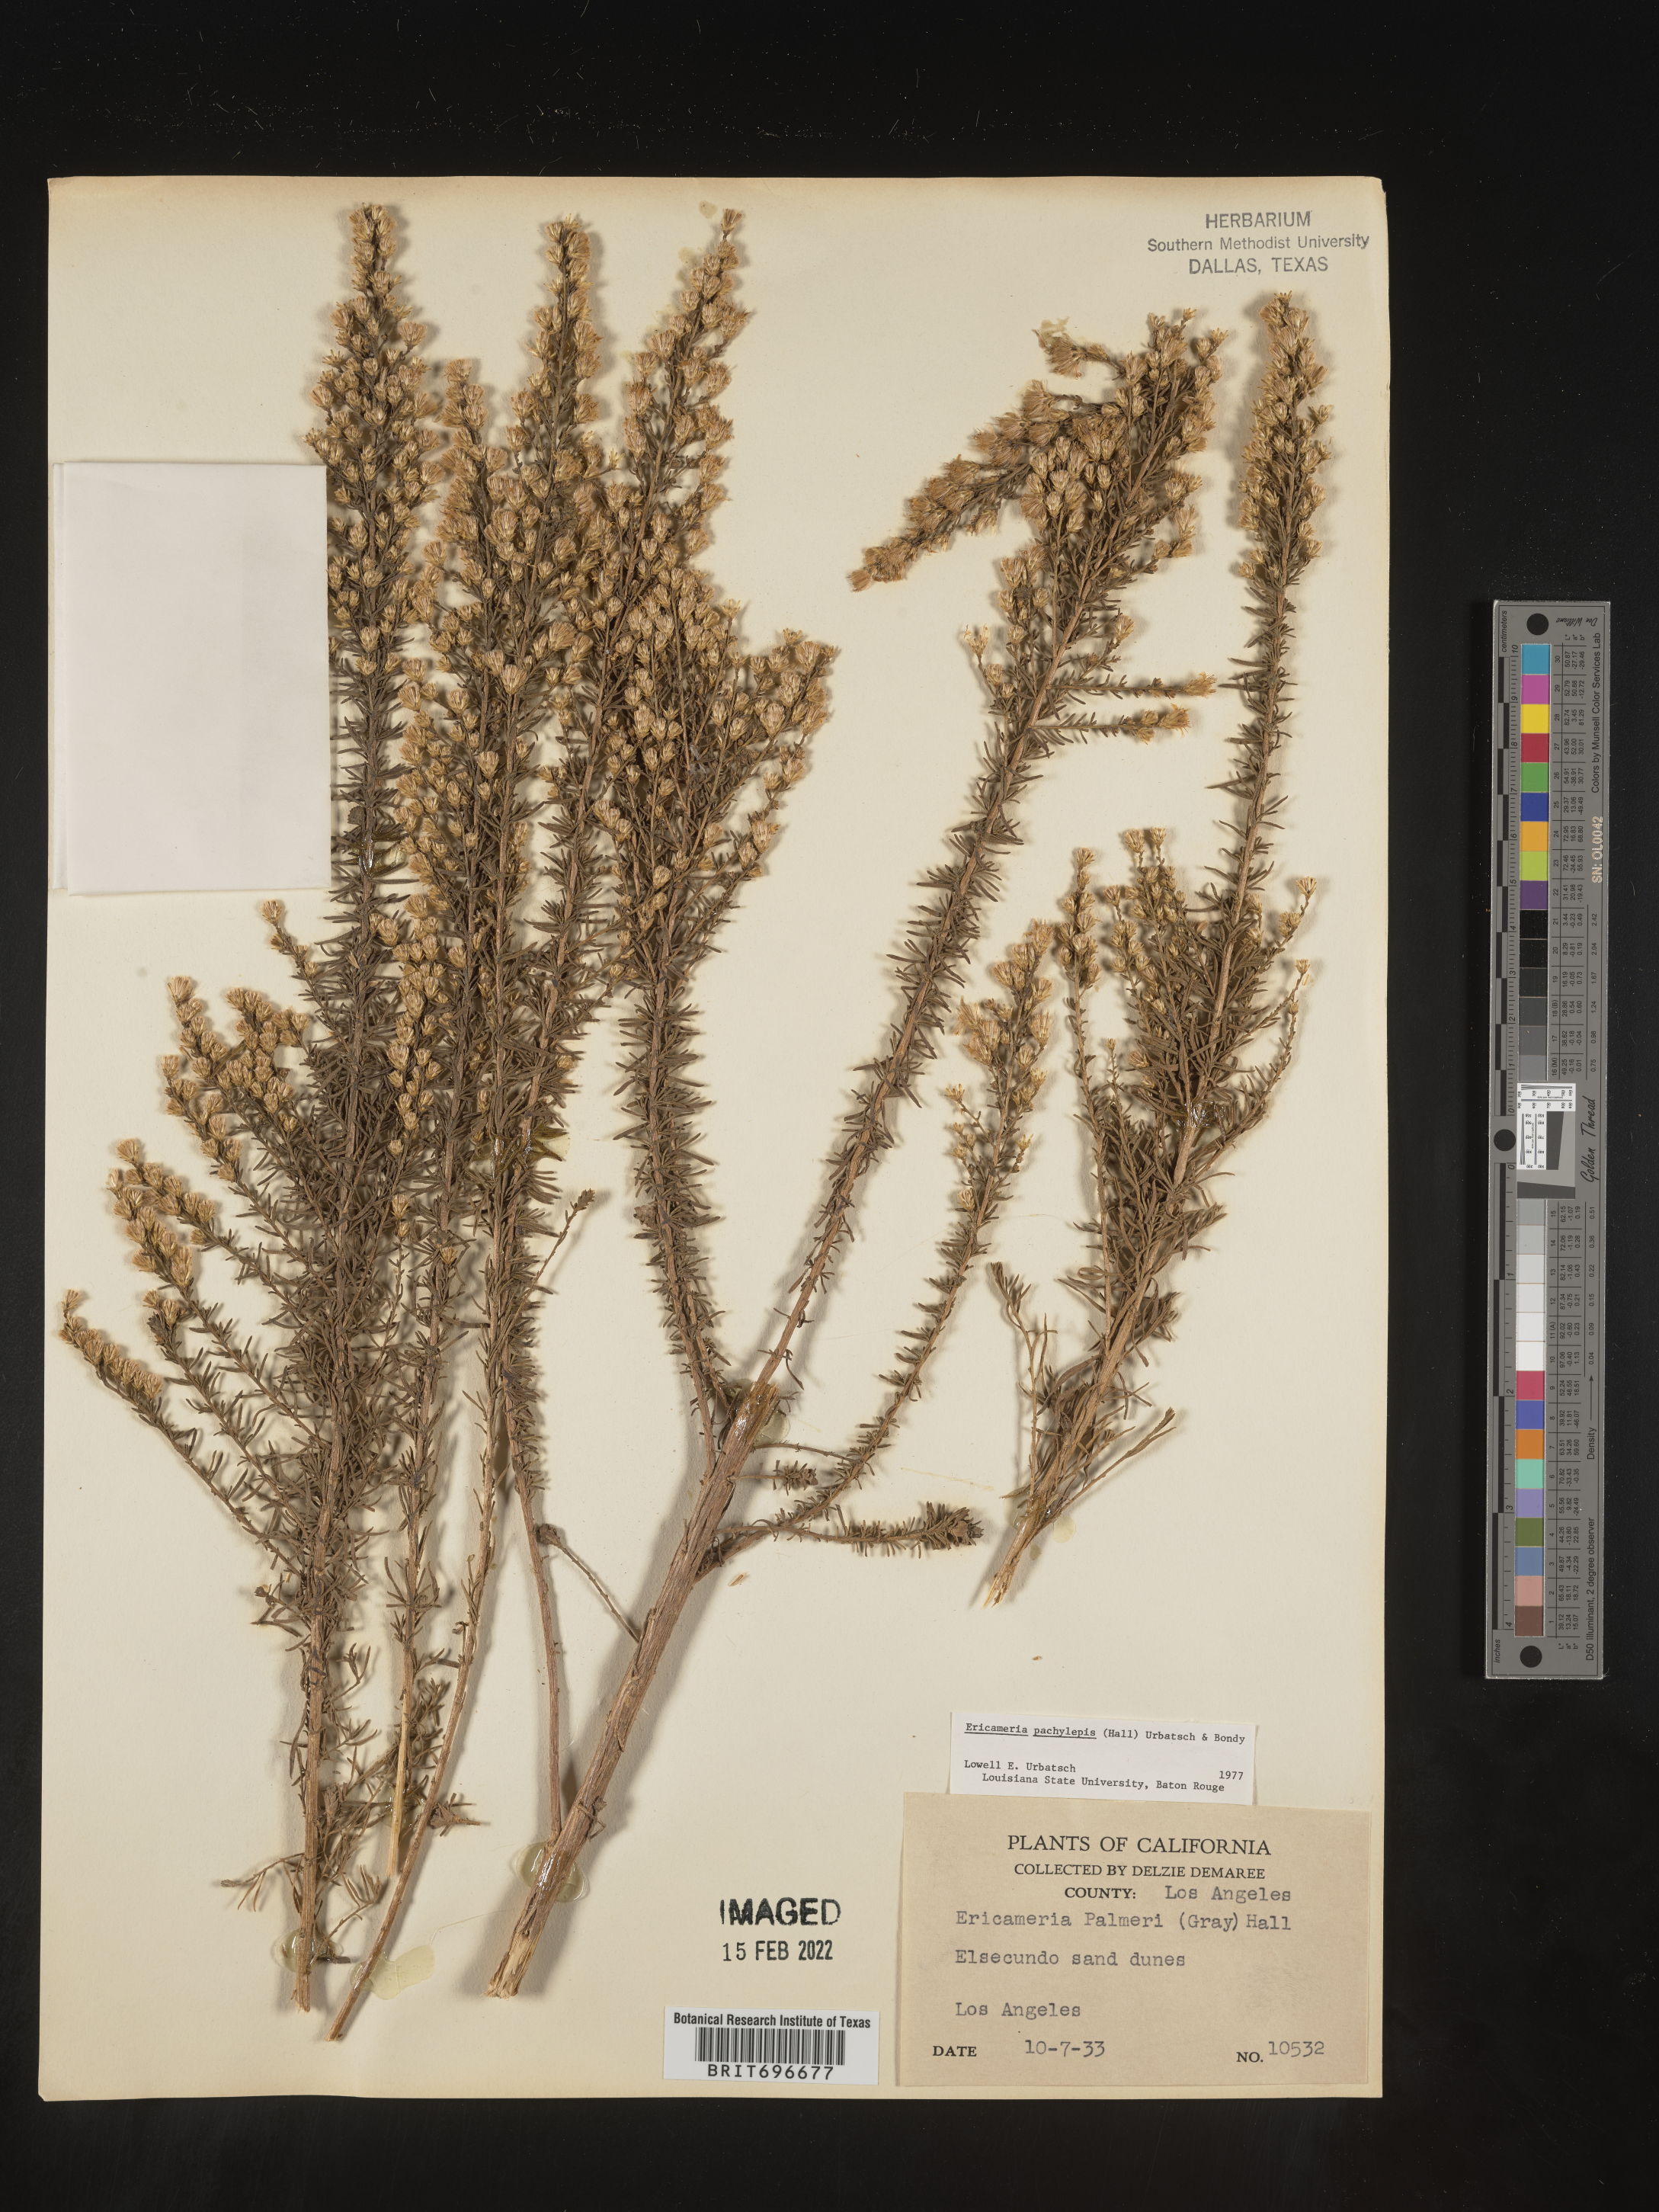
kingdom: Plantae
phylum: Tracheophyta
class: Magnoliopsida
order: Asterales
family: Asteraceae
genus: Ericameria
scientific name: Ericameria palmeri
